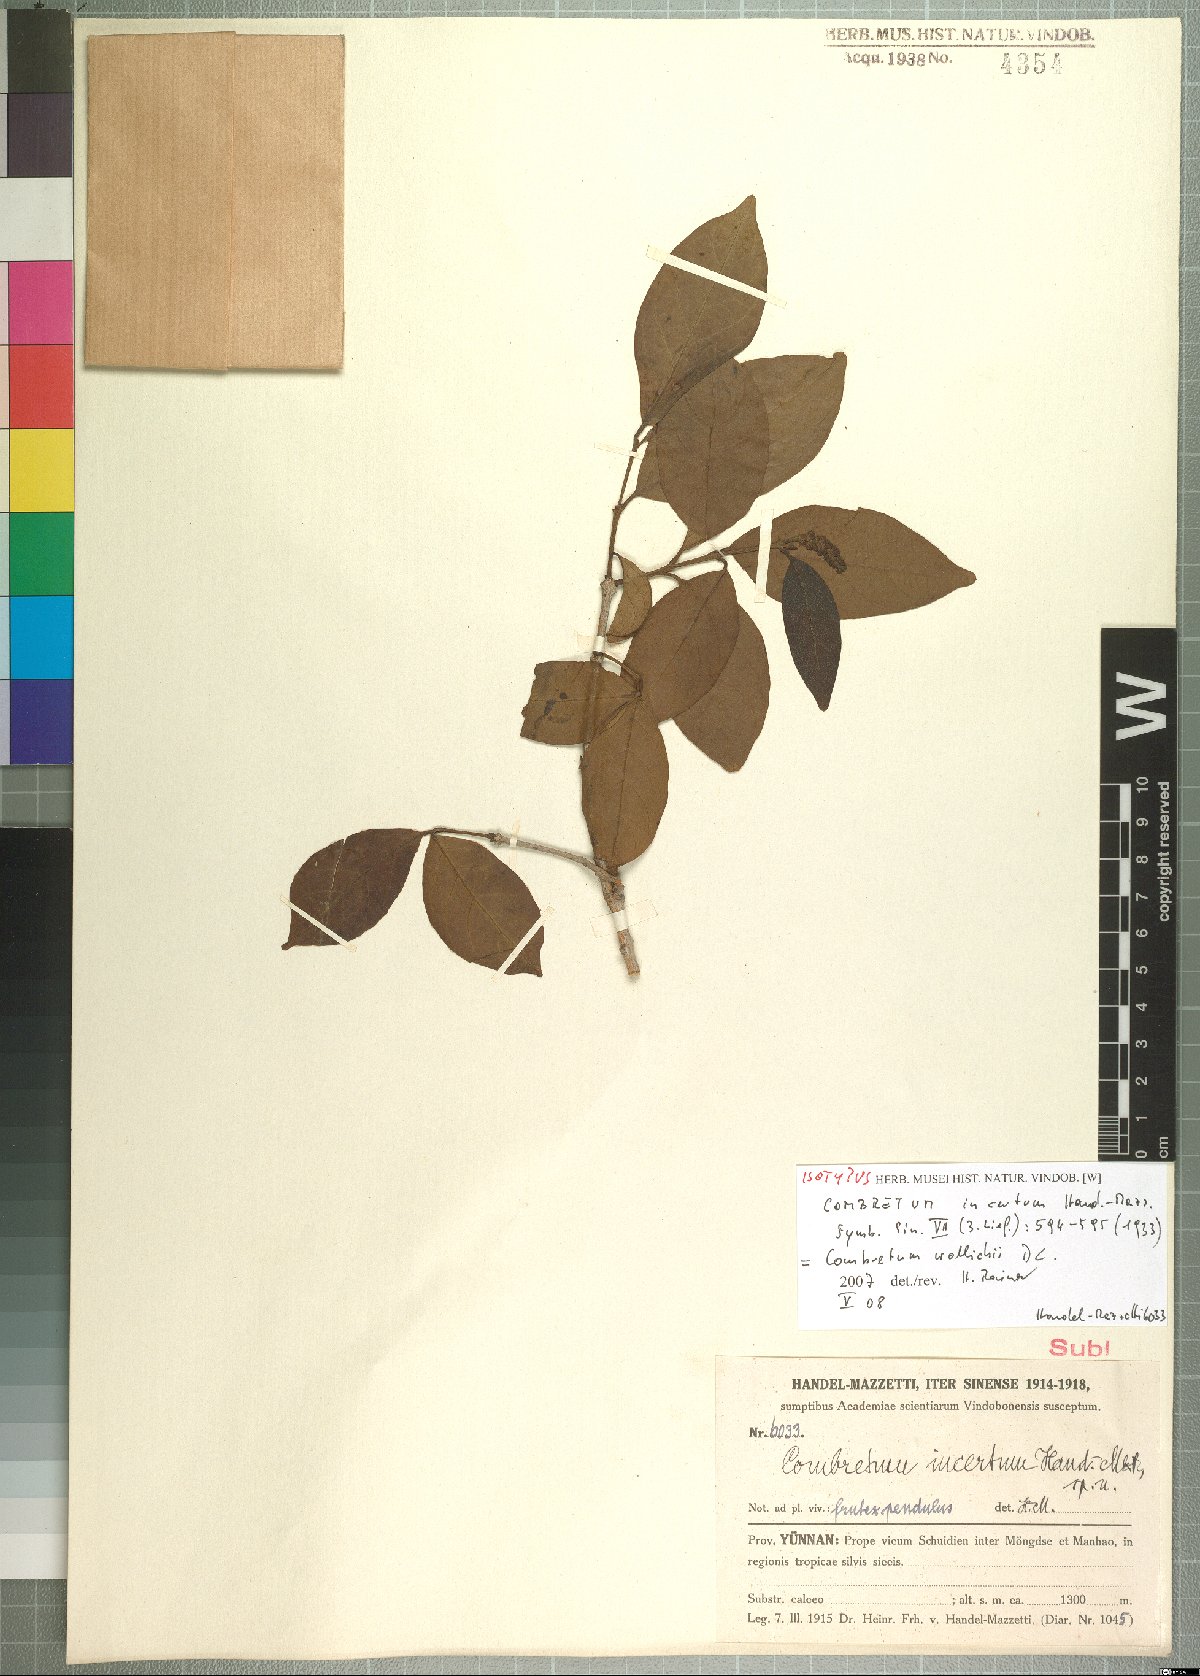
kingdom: Plantae
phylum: Tracheophyta
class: Magnoliopsida
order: Myrtales
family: Combretaceae
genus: Terminalia
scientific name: Terminalia franchetii
